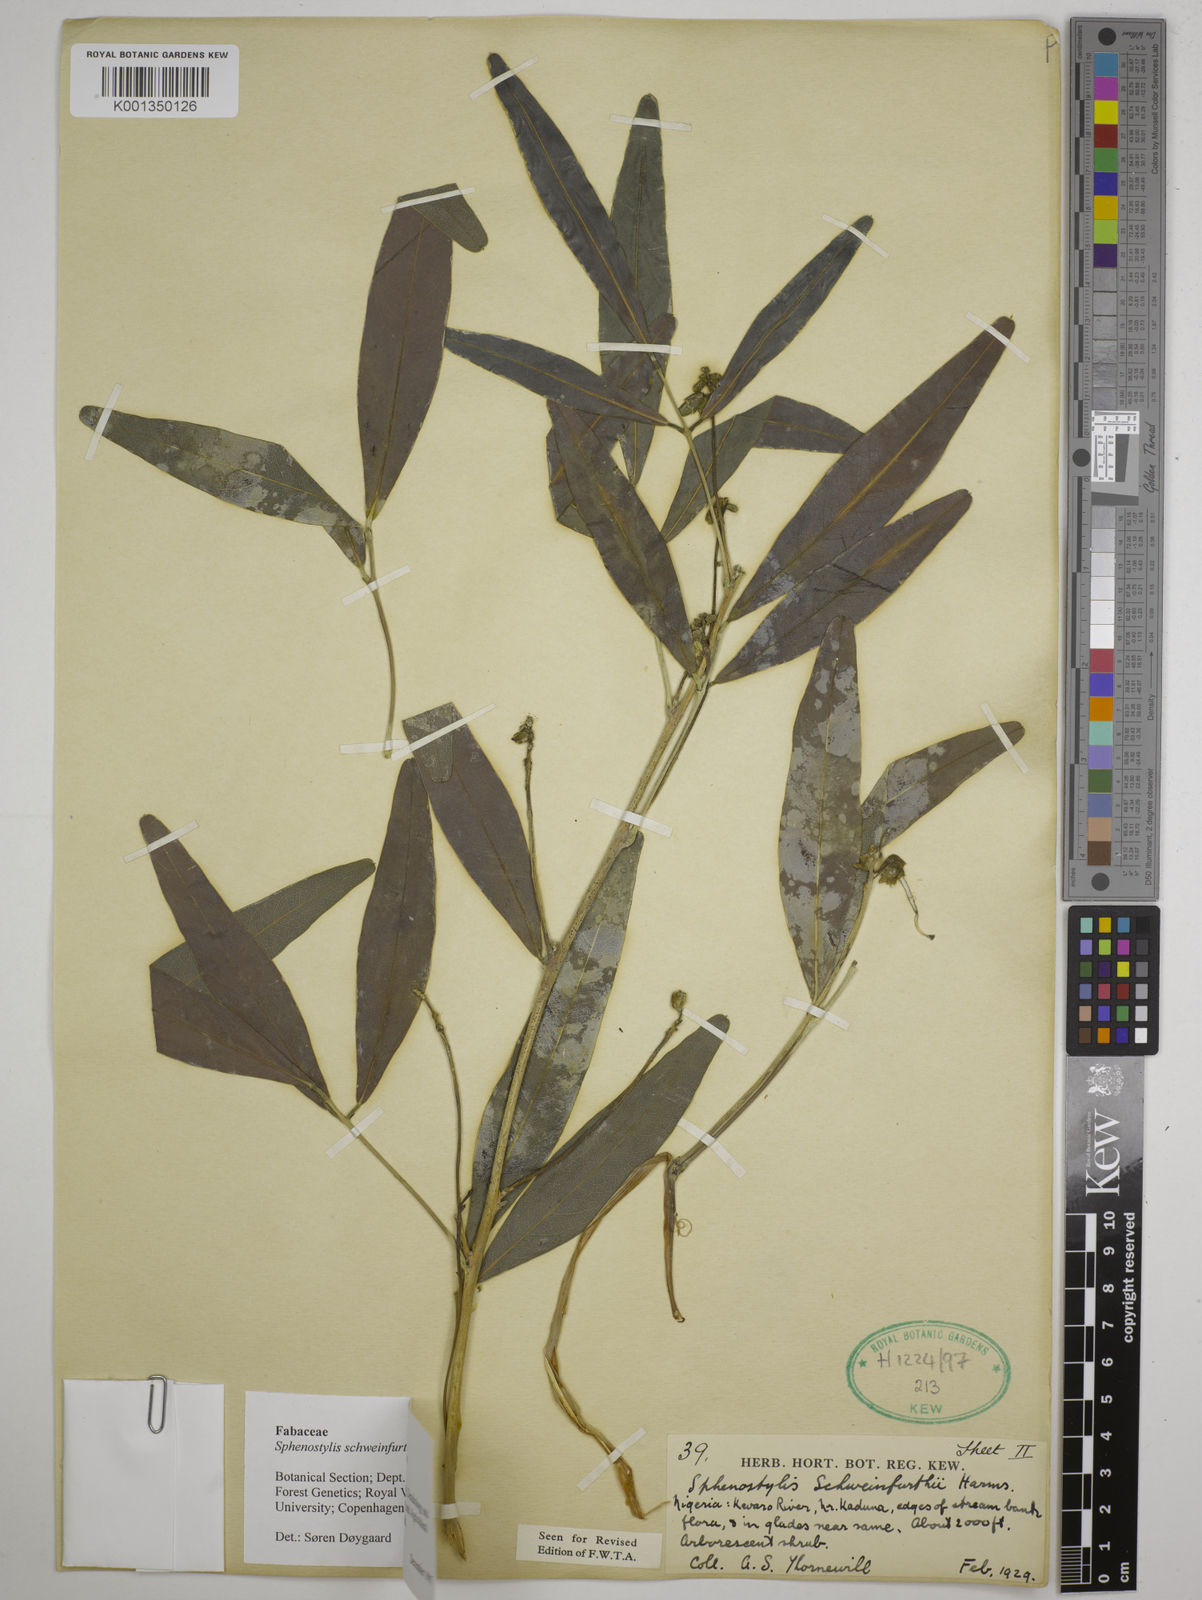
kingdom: Plantae
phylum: Tracheophyta
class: Magnoliopsida
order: Fabales
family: Fabaceae
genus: Sphenostylis
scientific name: Sphenostylis schweinfurthii
